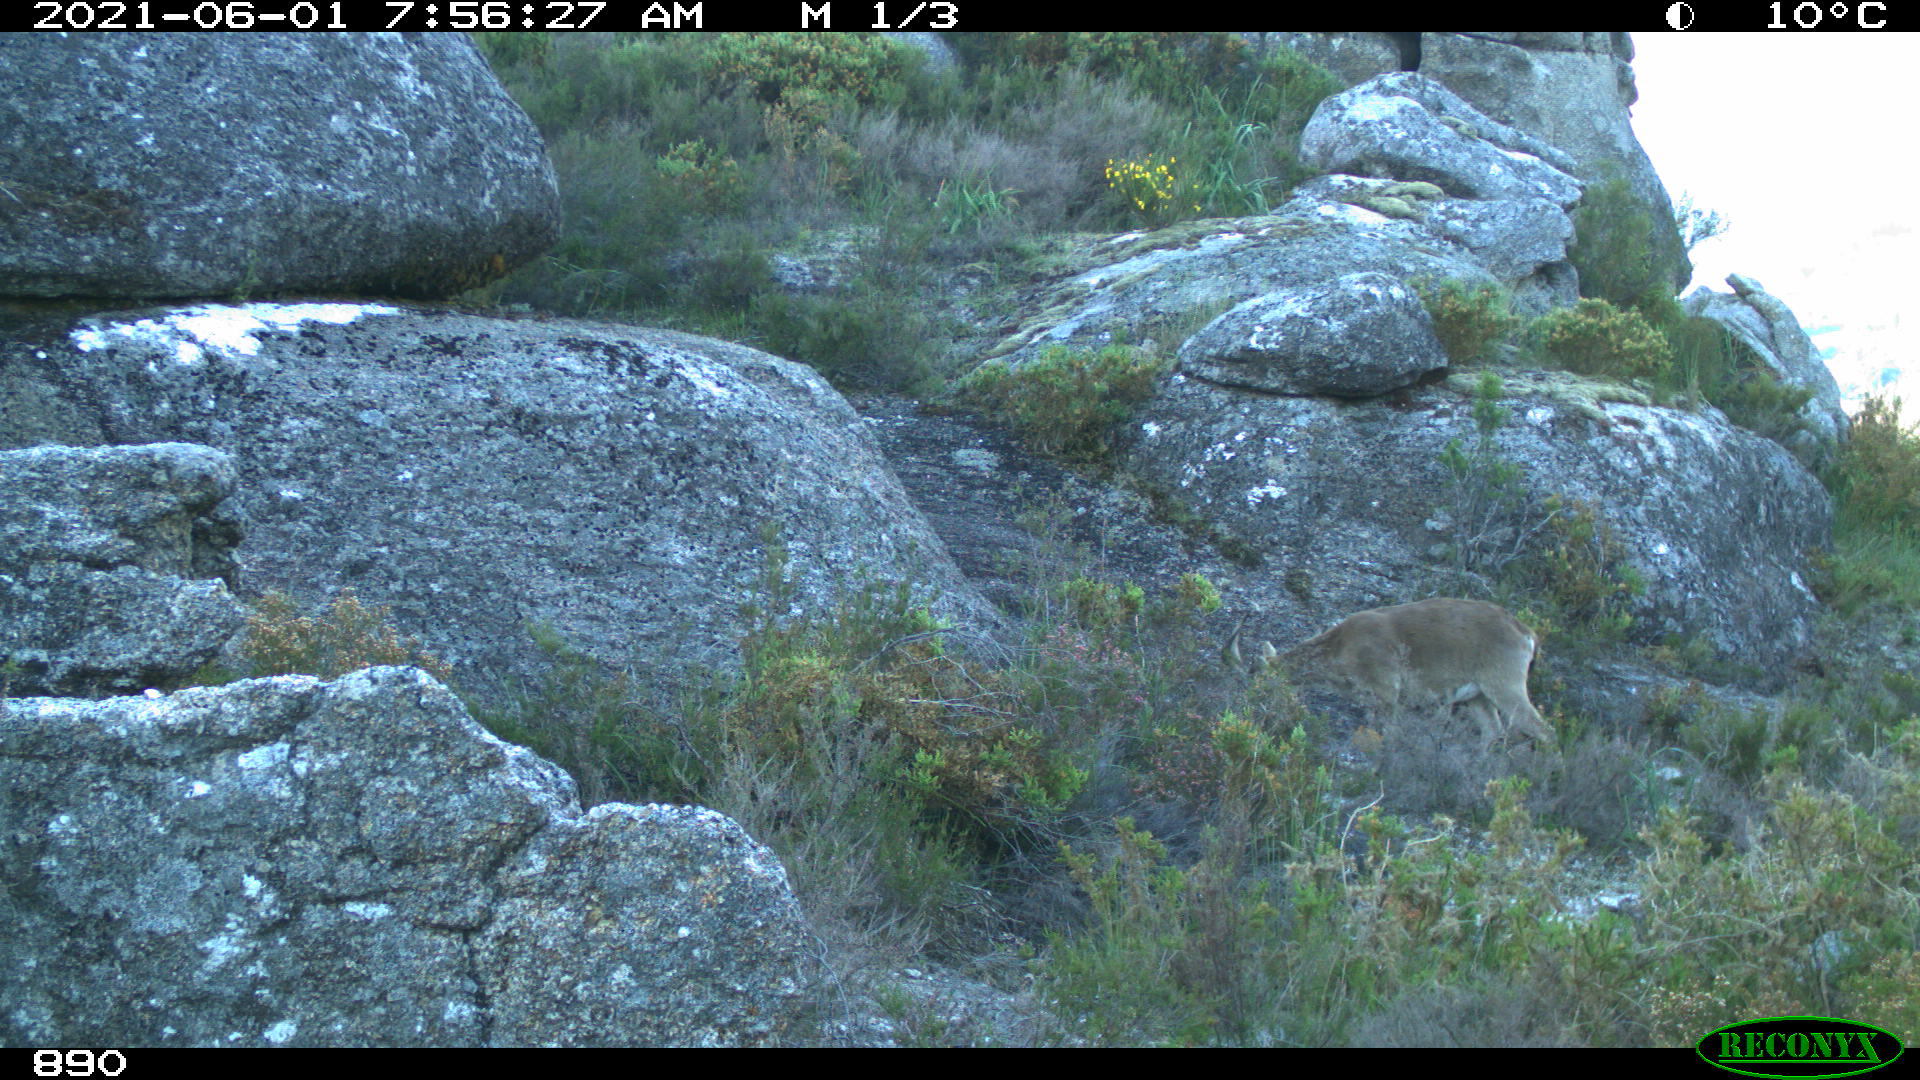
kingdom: Animalia
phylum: Chordata
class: Mammalia
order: Artiodactyla
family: Bovidae
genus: Capra
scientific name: Capra pyrenaica
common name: Spanish ibex
